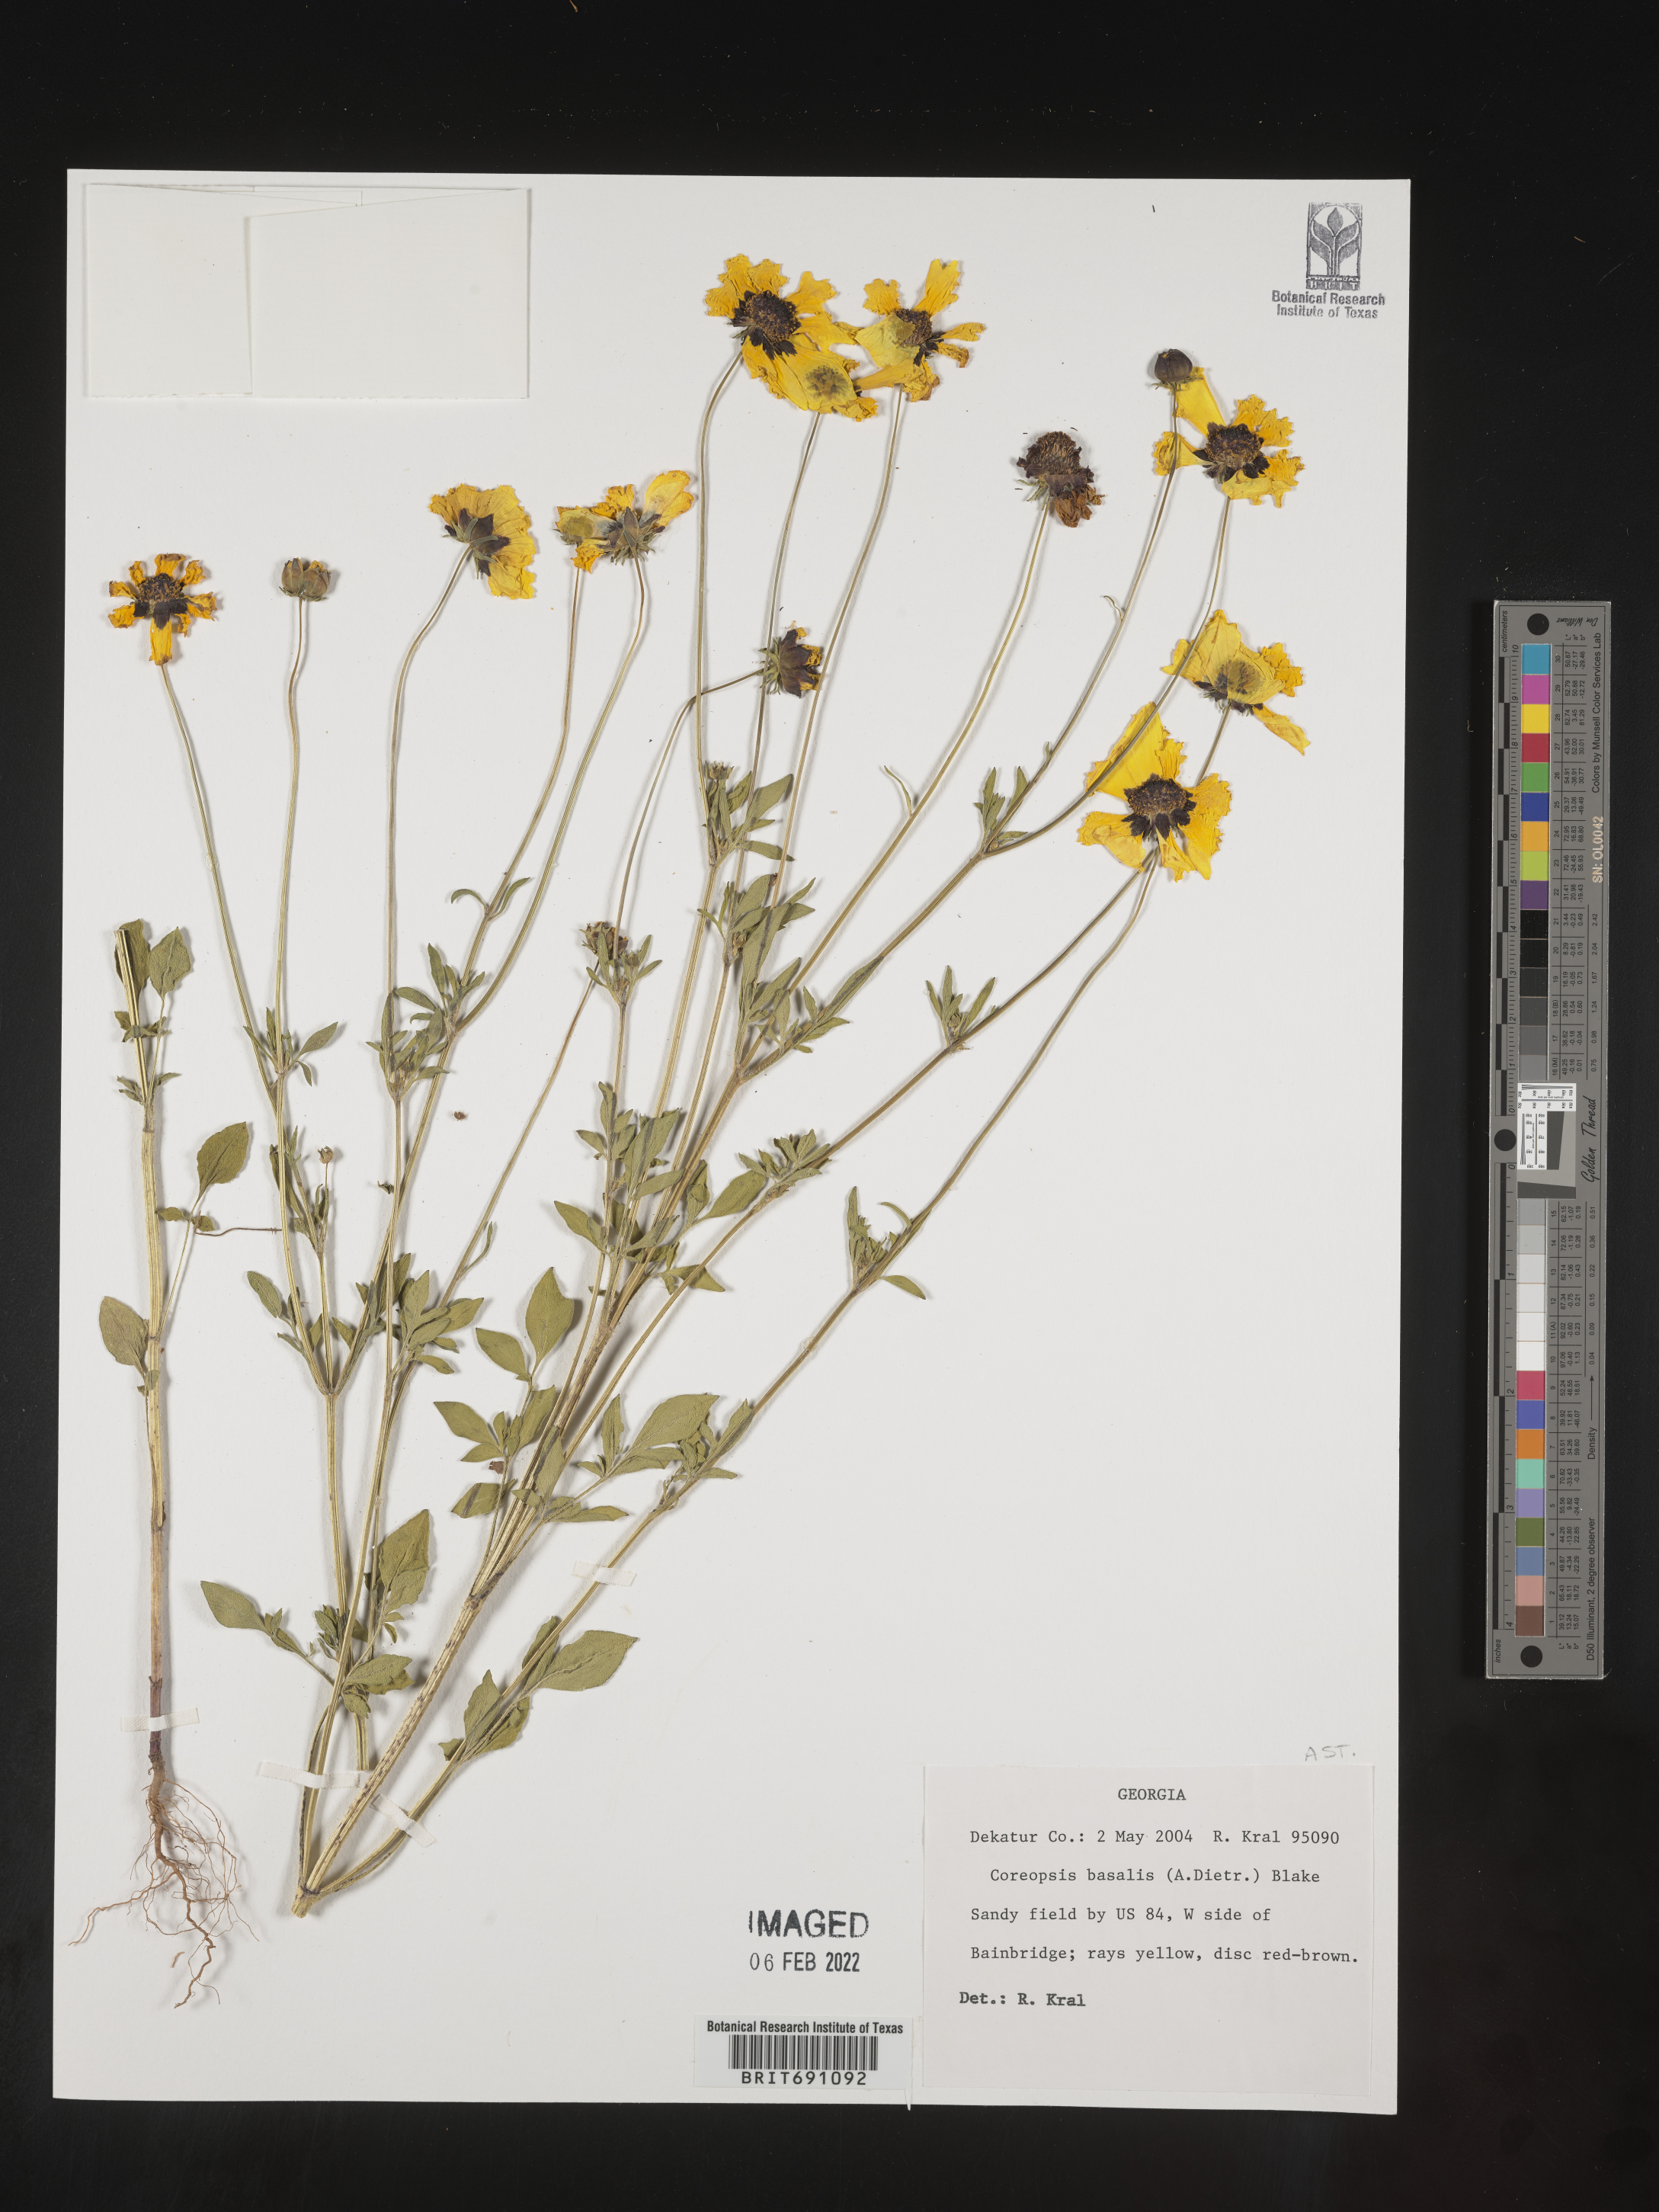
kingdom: Plantae
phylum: Tracheophyta
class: Magnoliopsida
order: Asterales
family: Asteraceae
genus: Coreopsis
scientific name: Coreopsis
